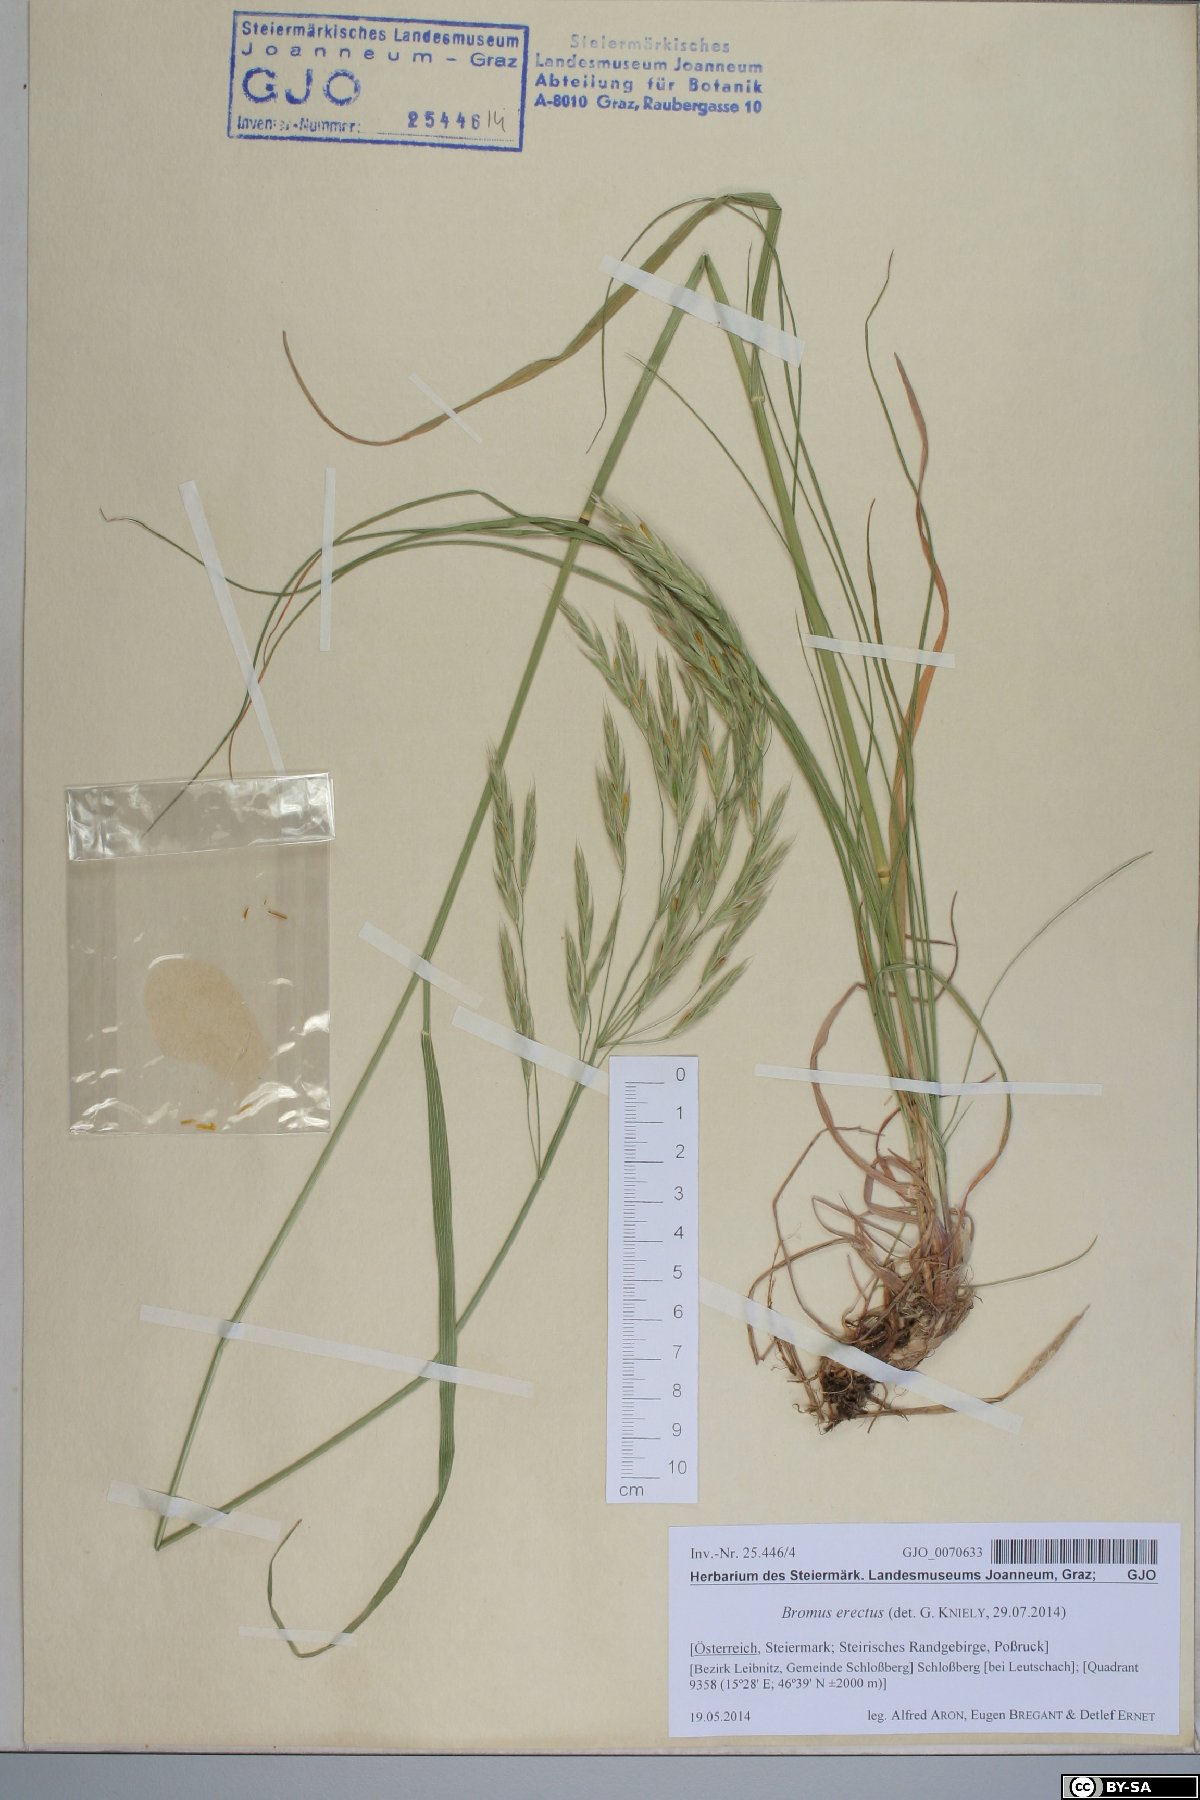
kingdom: Plantae
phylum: Tracheophyta
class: Liliopsida
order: Poales
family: Poaceae
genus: Bromus
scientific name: Bromus erectus
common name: Erect brome
